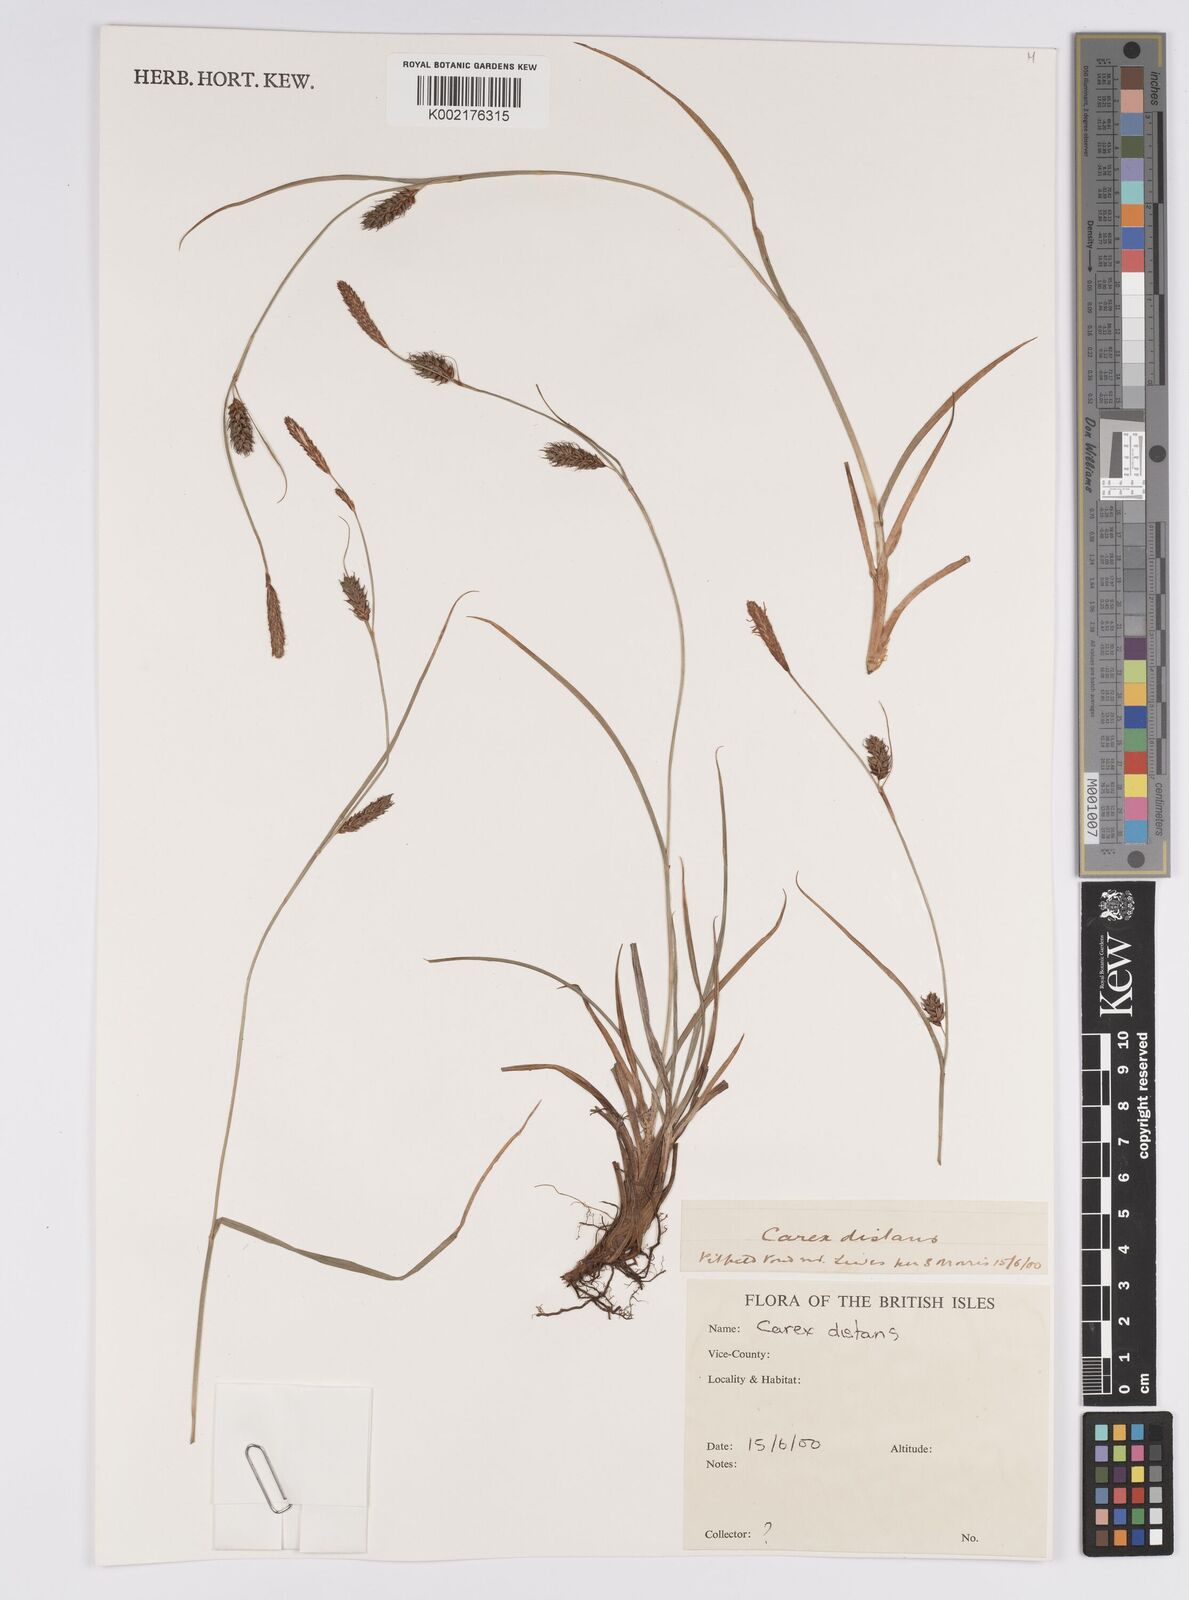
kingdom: Plantae
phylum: Tracheophyta
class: Liliopsida
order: Poales
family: Cyperaceae
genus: Carex
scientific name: Carex distans
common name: Distant sedge
